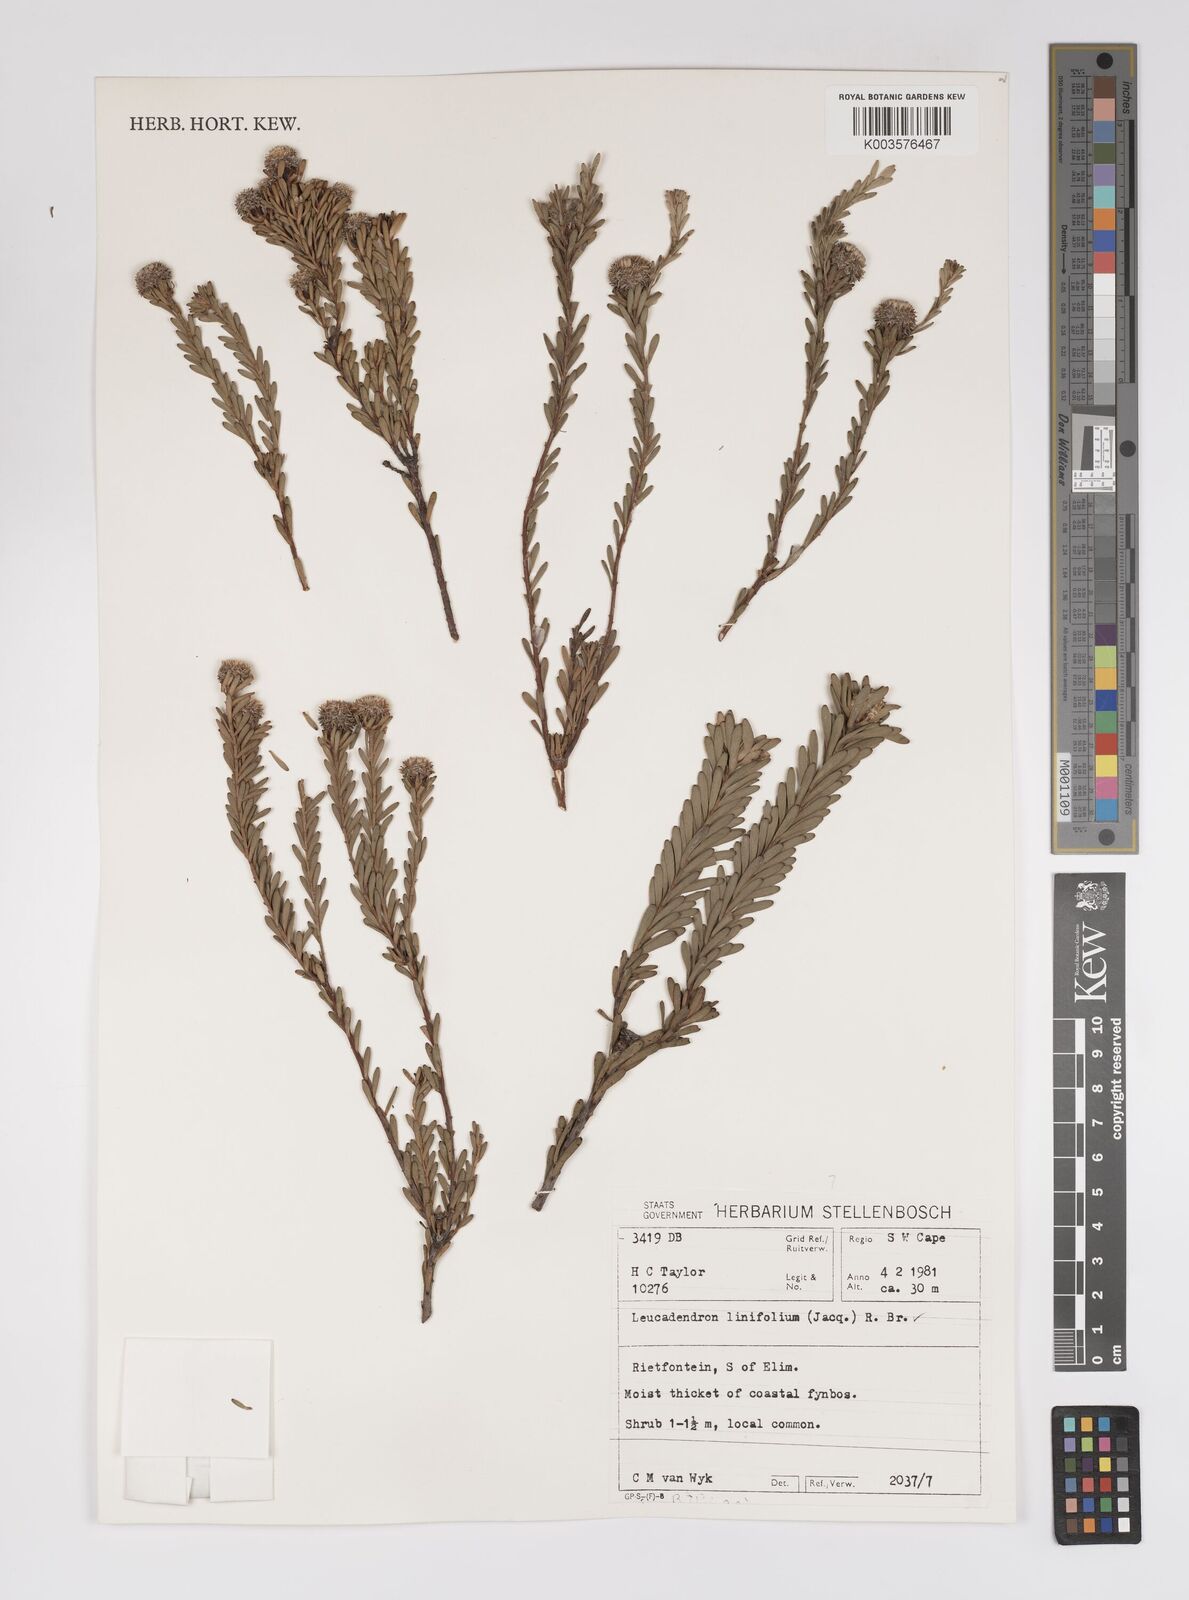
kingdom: Plantae
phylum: Tracheophyta
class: Magnoliopsida
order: Proteales
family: Proteaceae
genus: Leucadendron
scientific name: Leucadendron linifolium
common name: Line-leaf conebush
